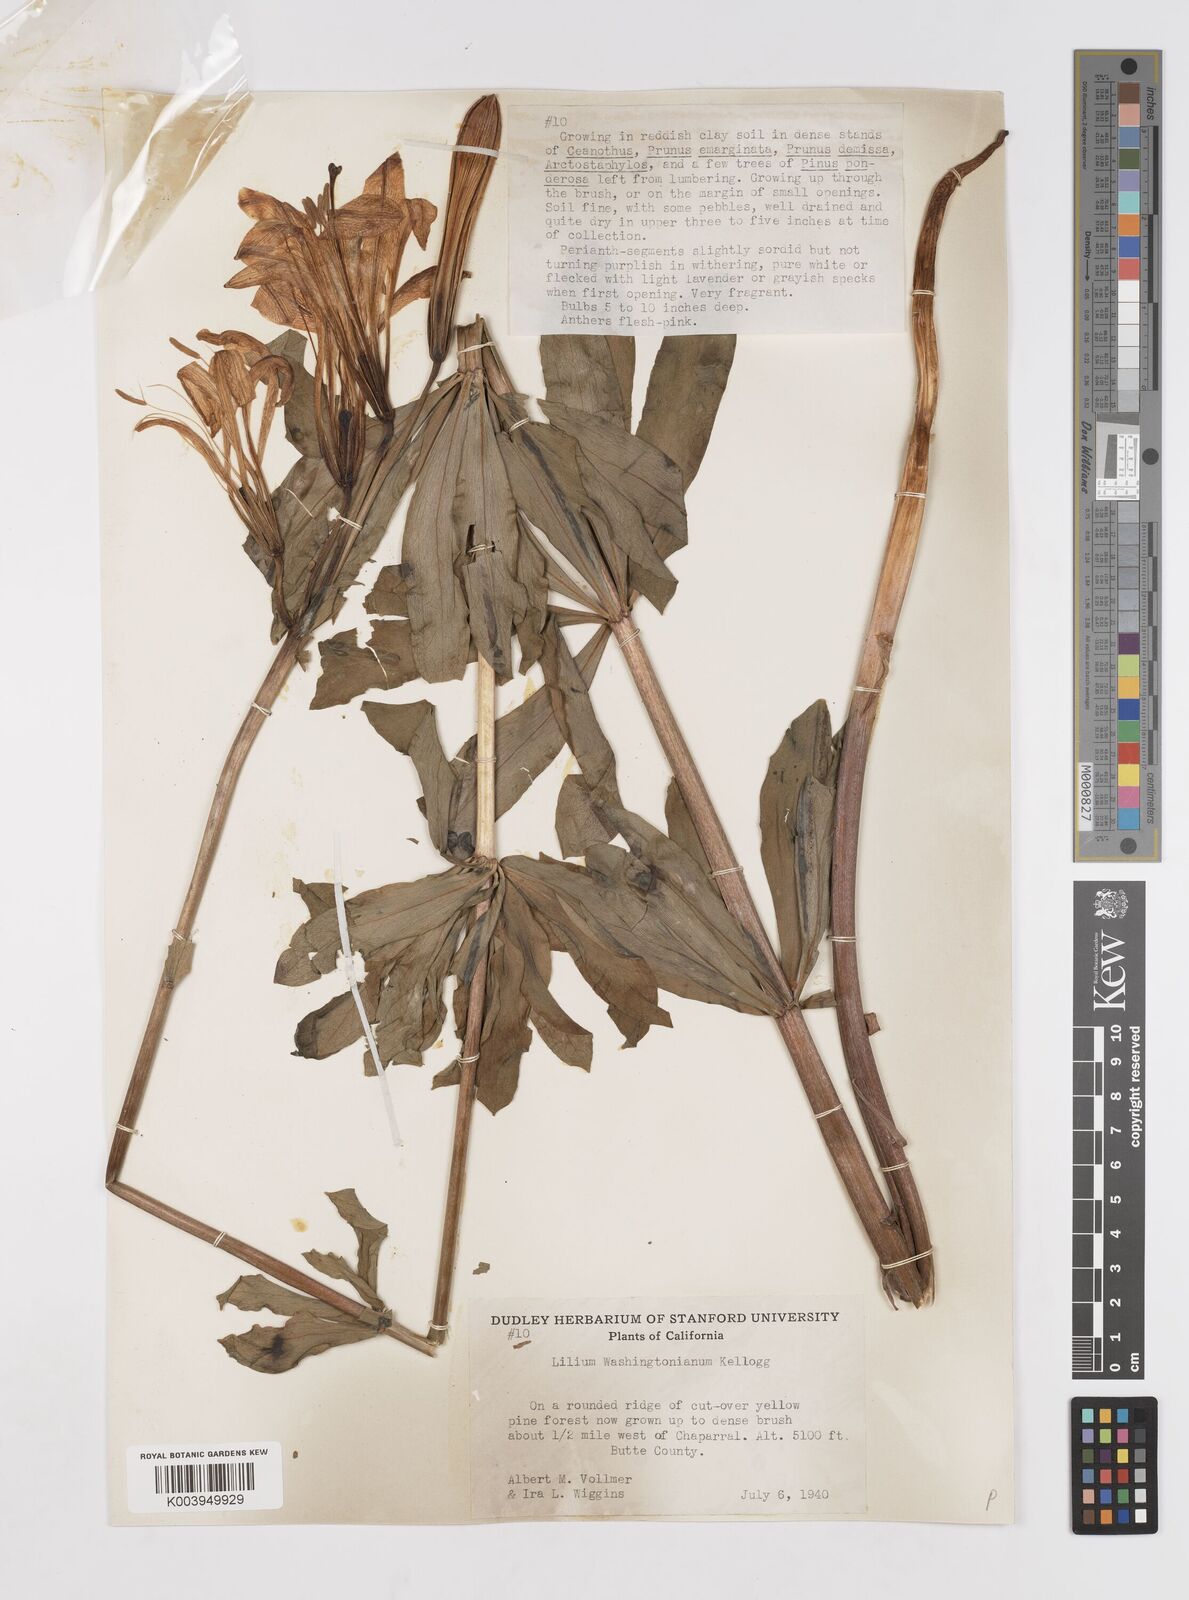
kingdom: Plantae
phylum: Tracheophyta
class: Liliopsida
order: Liliales
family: Liliaceae
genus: Lilium
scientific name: Lilium washingtonianum
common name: Washington lily
